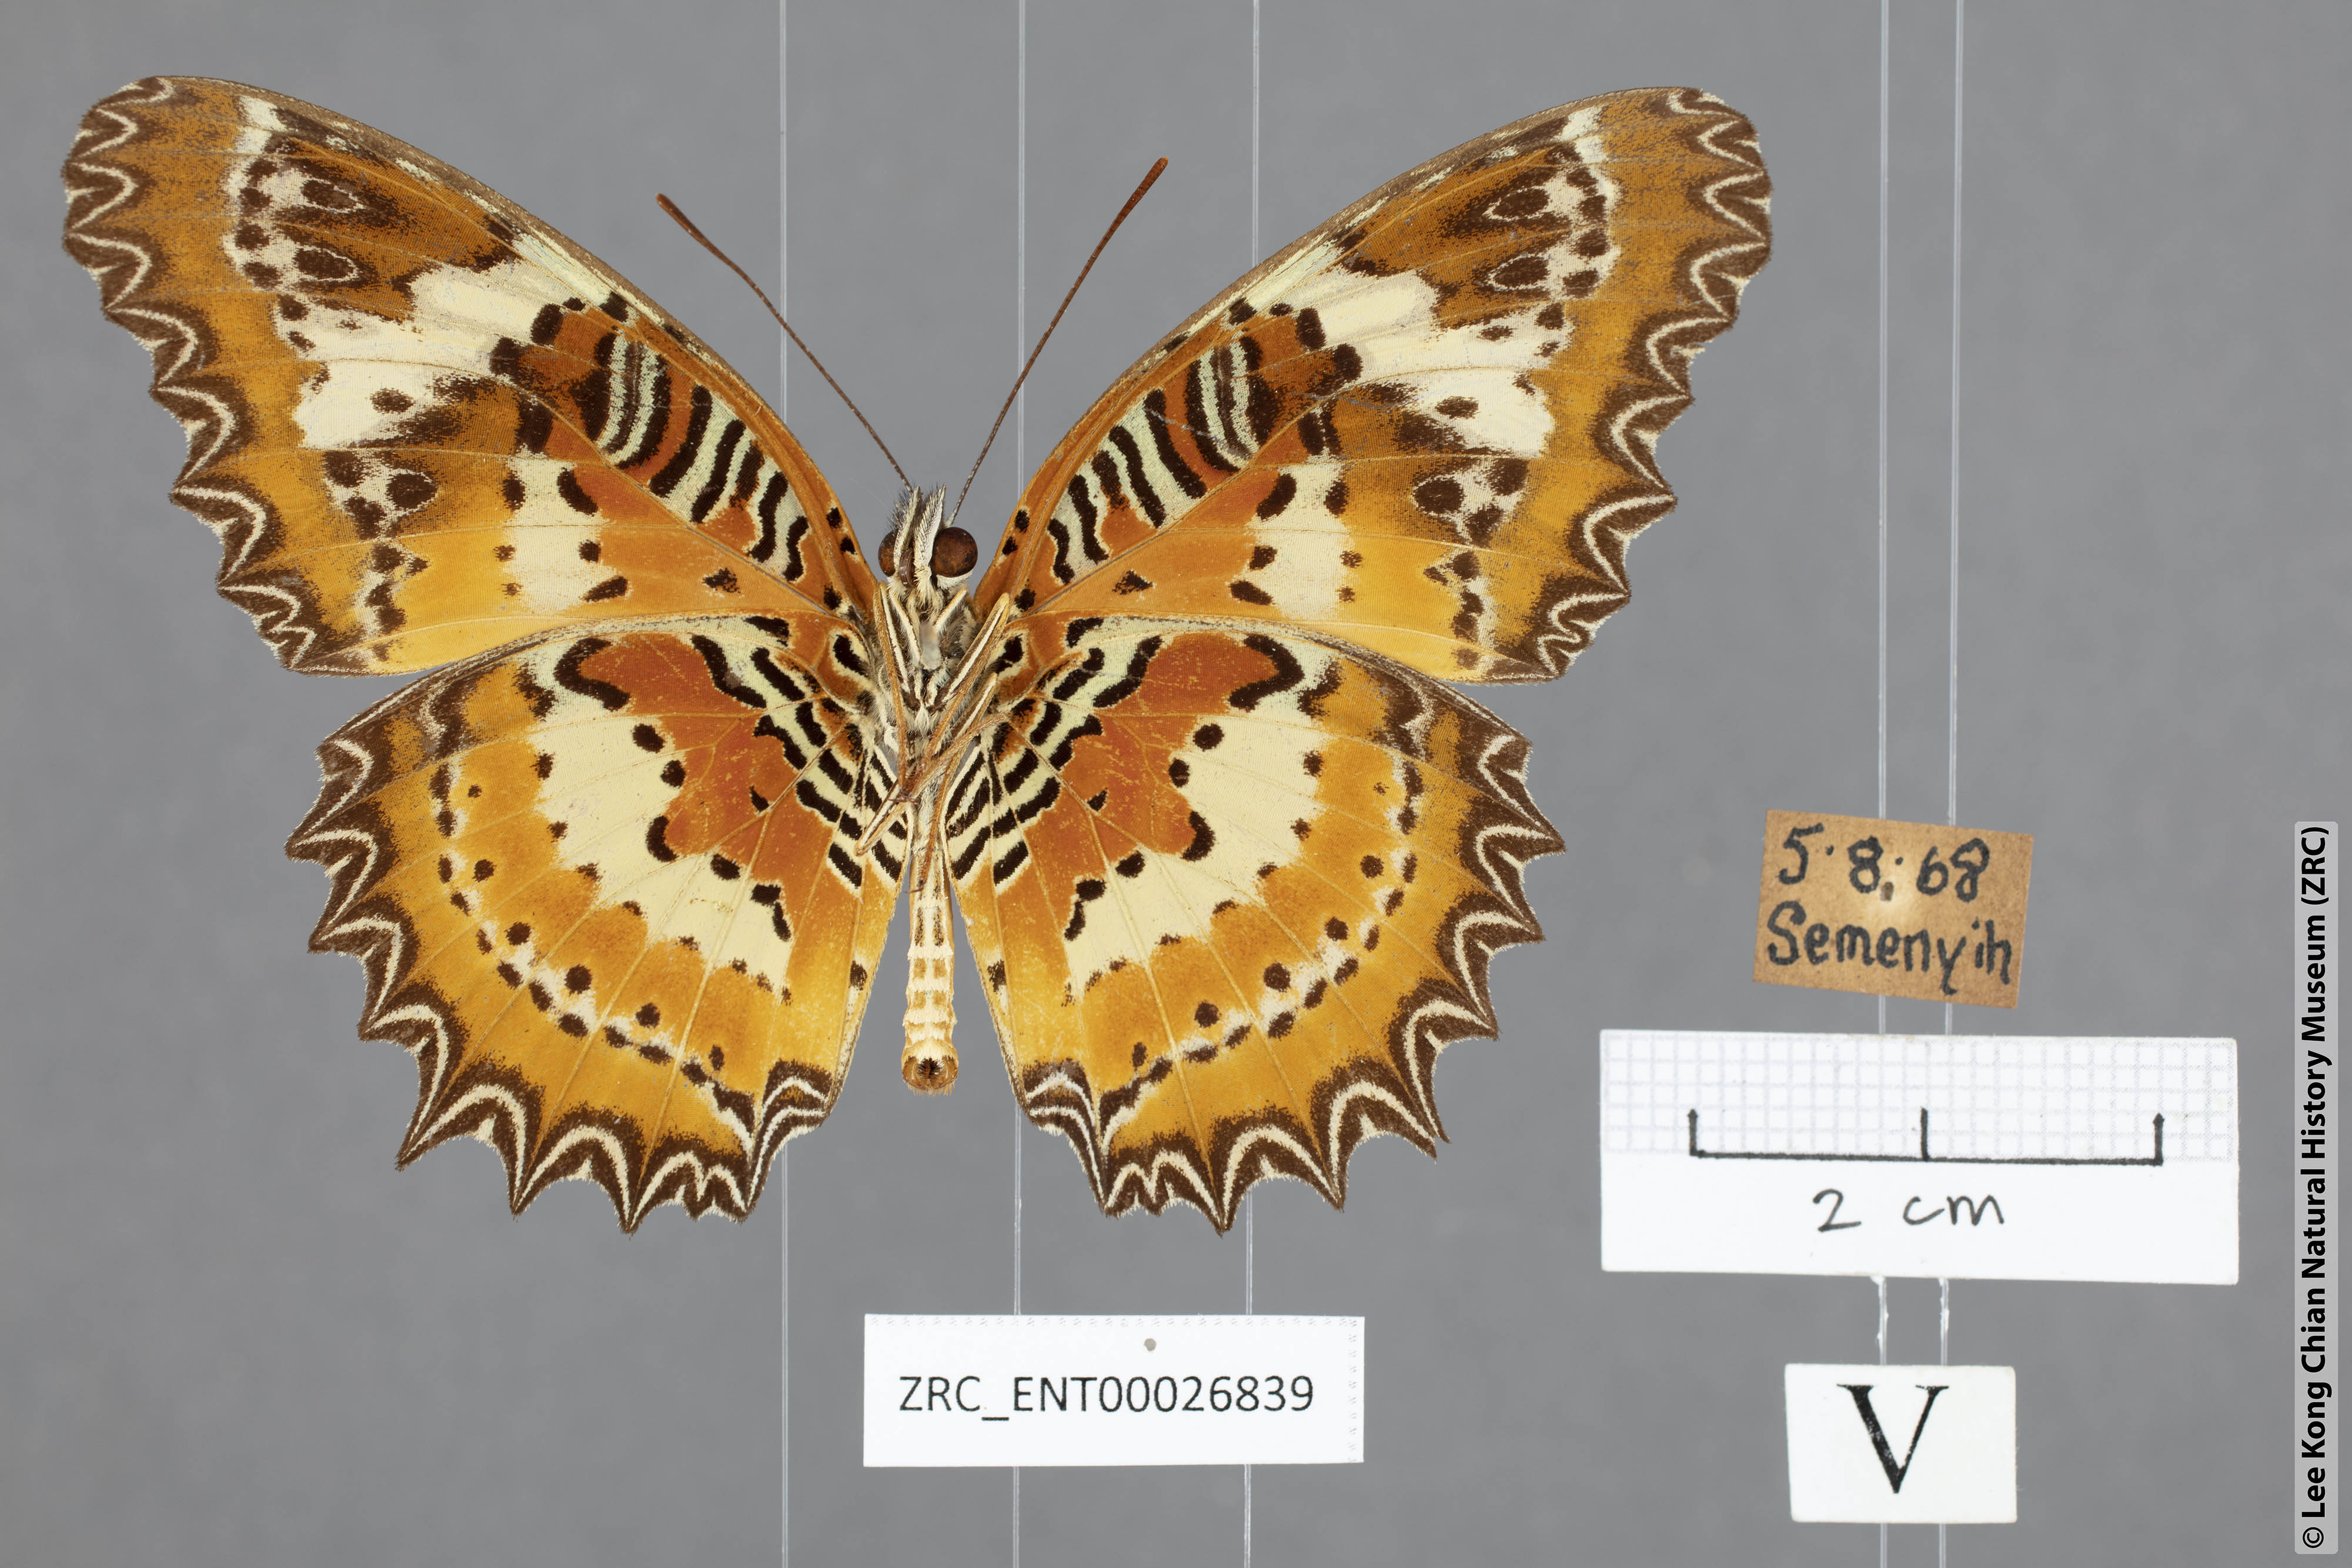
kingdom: Animalia
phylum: Arthropoda
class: Insecta
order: Lepidoptera
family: Nymphalidae
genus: Cethosia
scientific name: Cethosia penthesilea
